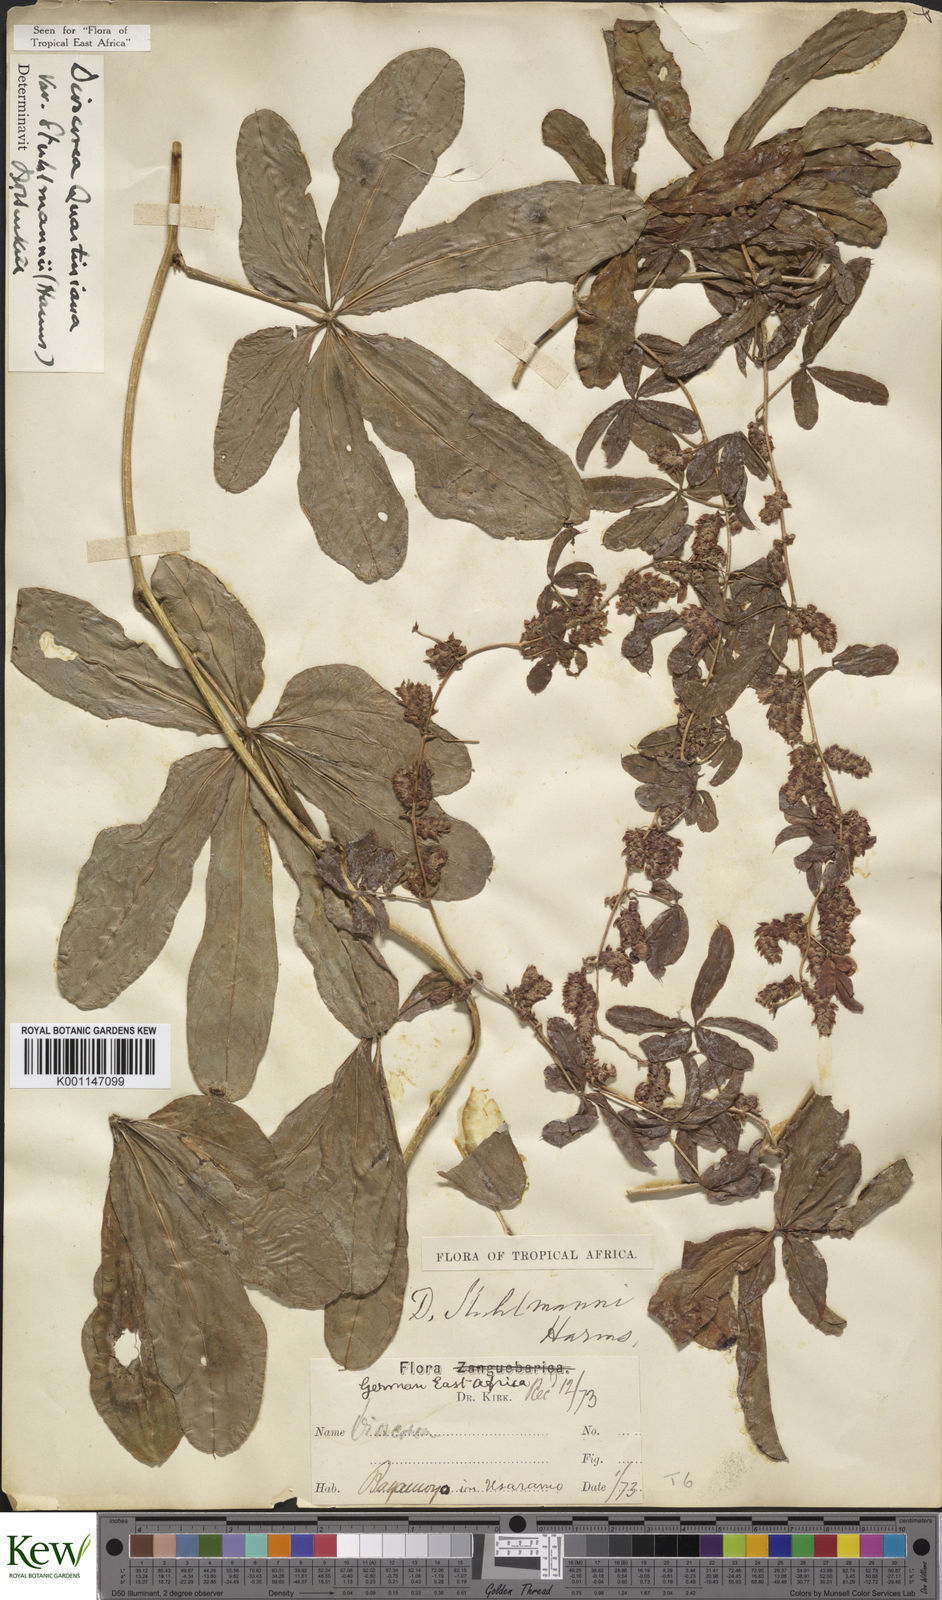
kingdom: Plantae
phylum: Tracheophyta
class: Liliopsida
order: Dioscoreales
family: Dioscoreaceae
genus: Dioscorea
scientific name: Dioscorea quartiniana
